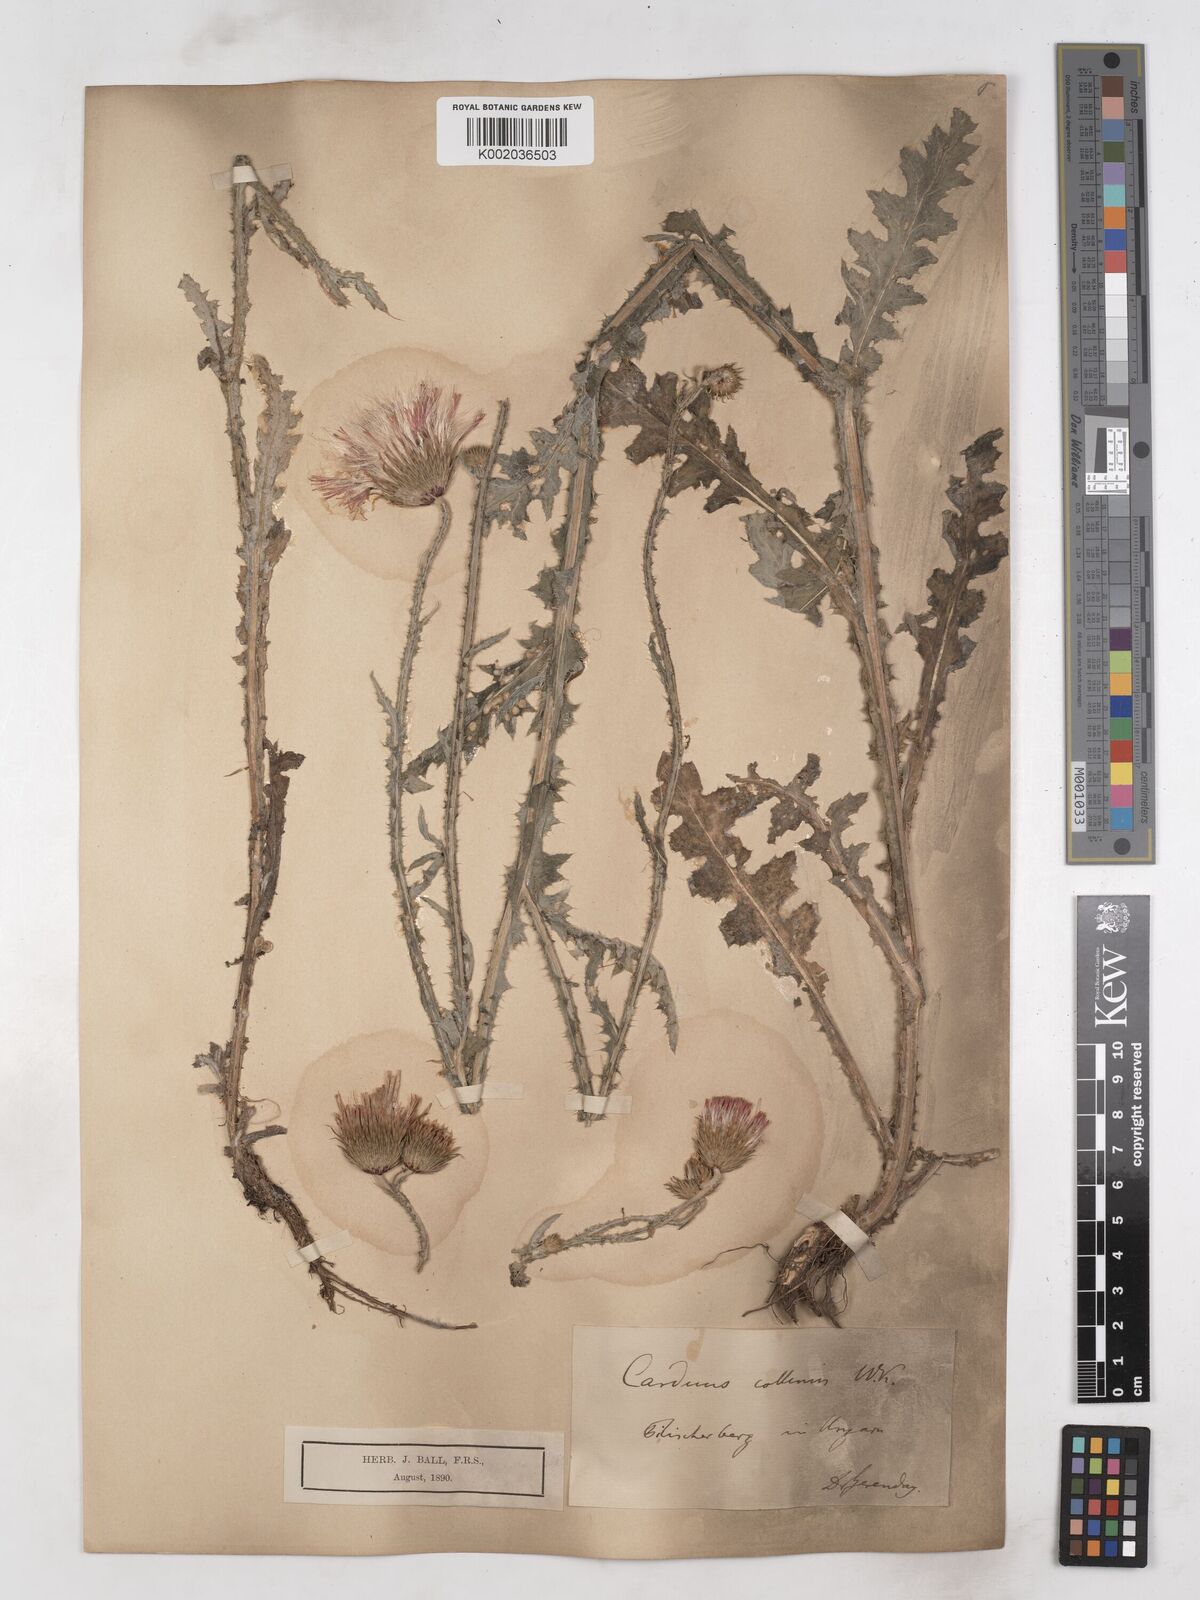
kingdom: Plantae
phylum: Tracheophyta
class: Magnoliopsida
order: Asterales
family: Asteraceae
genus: Carduus
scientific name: Carduus collinus
